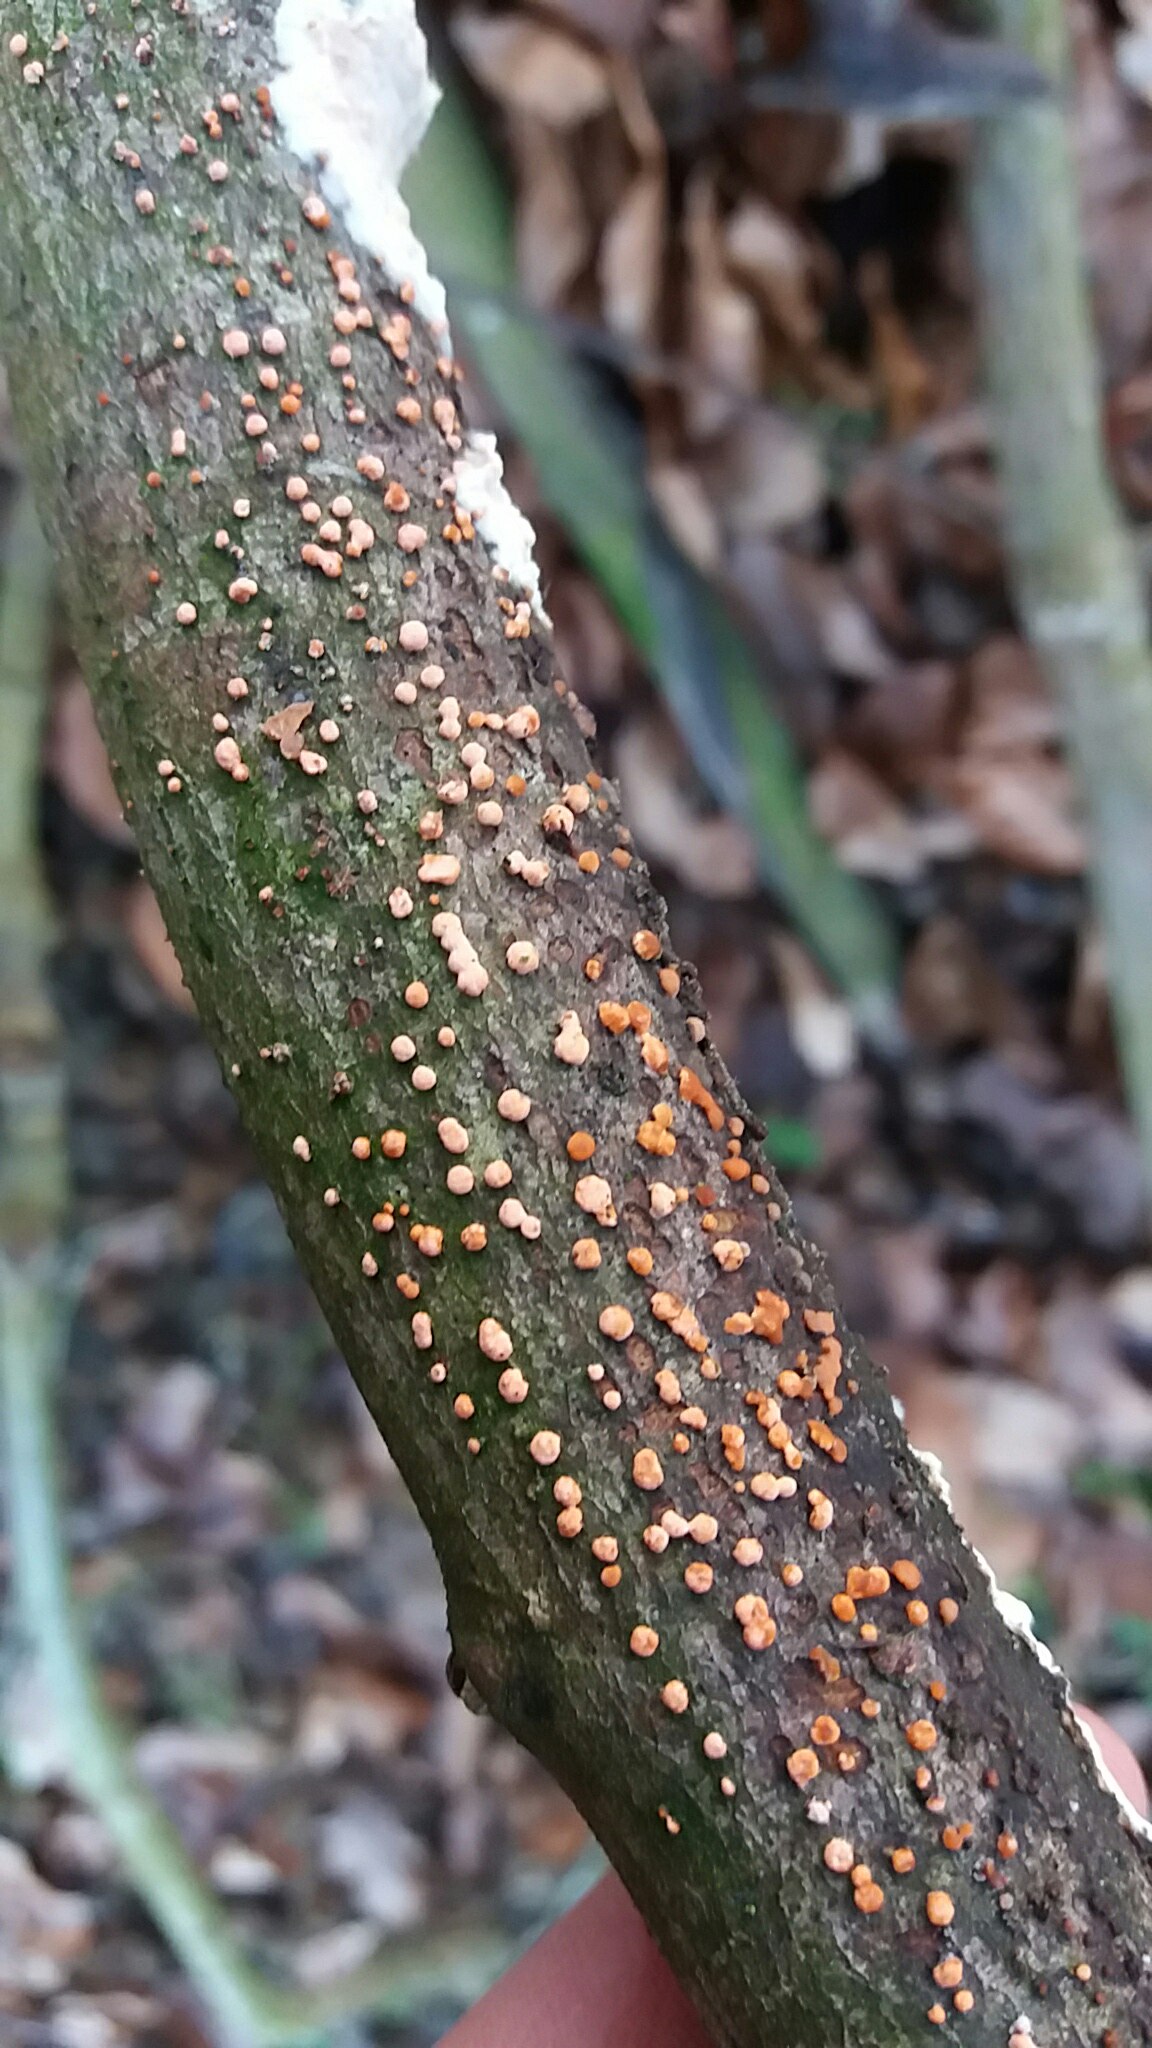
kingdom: Fungi
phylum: Ascomycota
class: Sordariomycetes
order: Hypocreales
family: Nectriaceae
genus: Nectria
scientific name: Nectria cinnabarina
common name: almindelig cinnobersvamp
